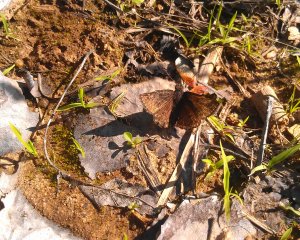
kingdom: Animalia
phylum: Arthropoda
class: Insecta
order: Lepidoptera
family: Hesperiidae
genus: Erynnis
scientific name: Erynnis icelus
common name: Dreamy Duskywing
